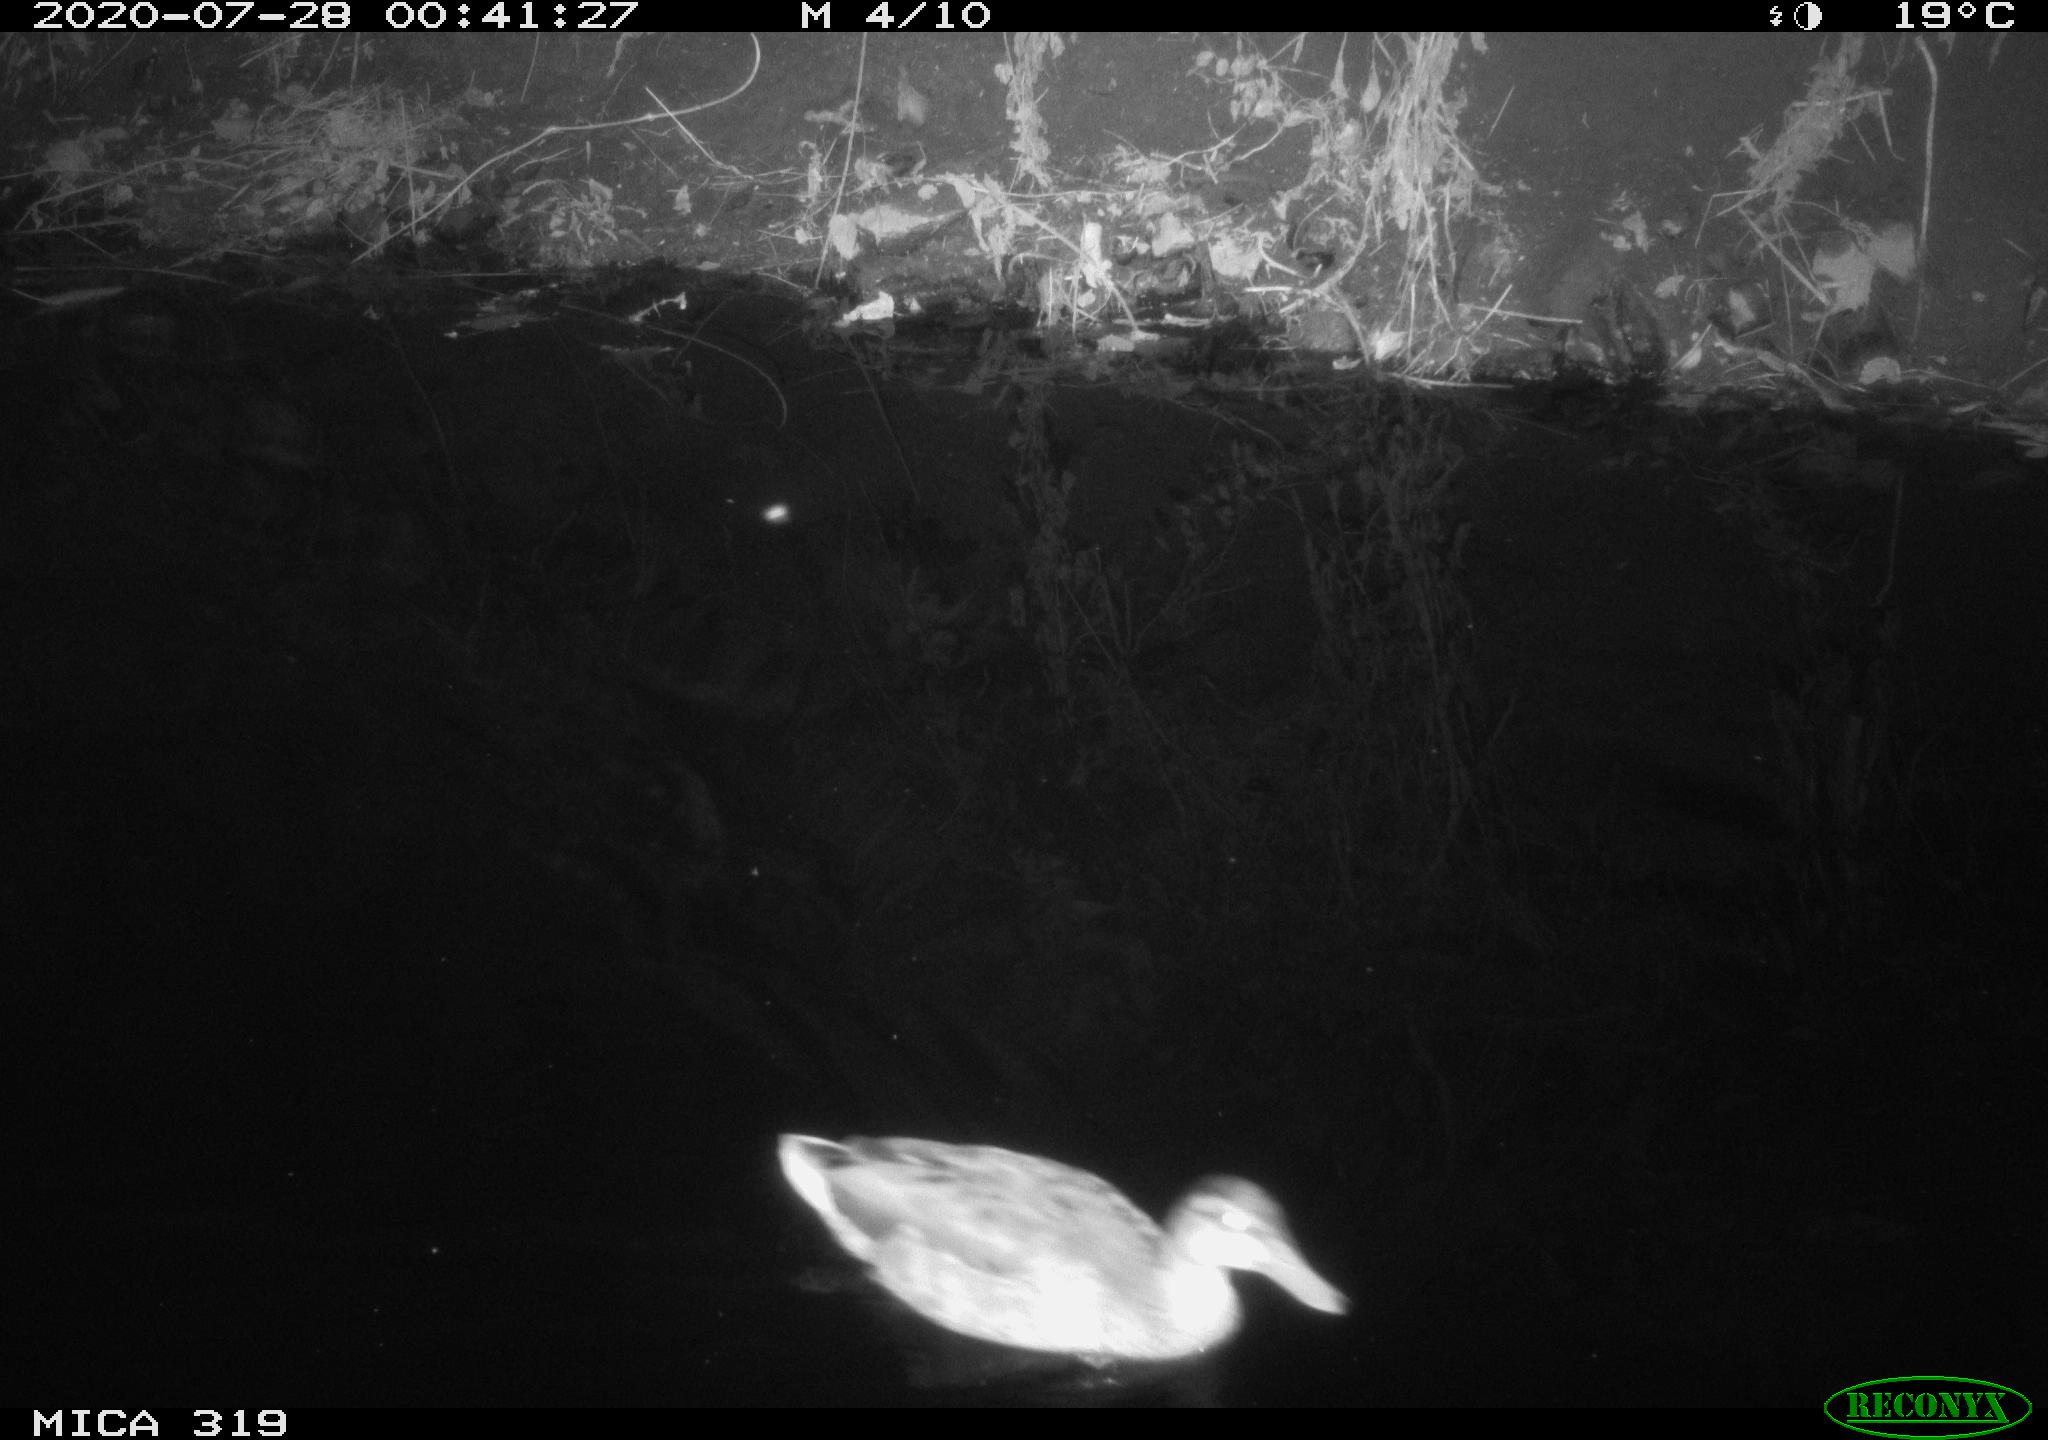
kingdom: Animalia
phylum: Chordata
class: Aves
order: Anseriformes
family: Anatidae
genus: Anas
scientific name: Anas platyrhynchos
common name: Mallard
